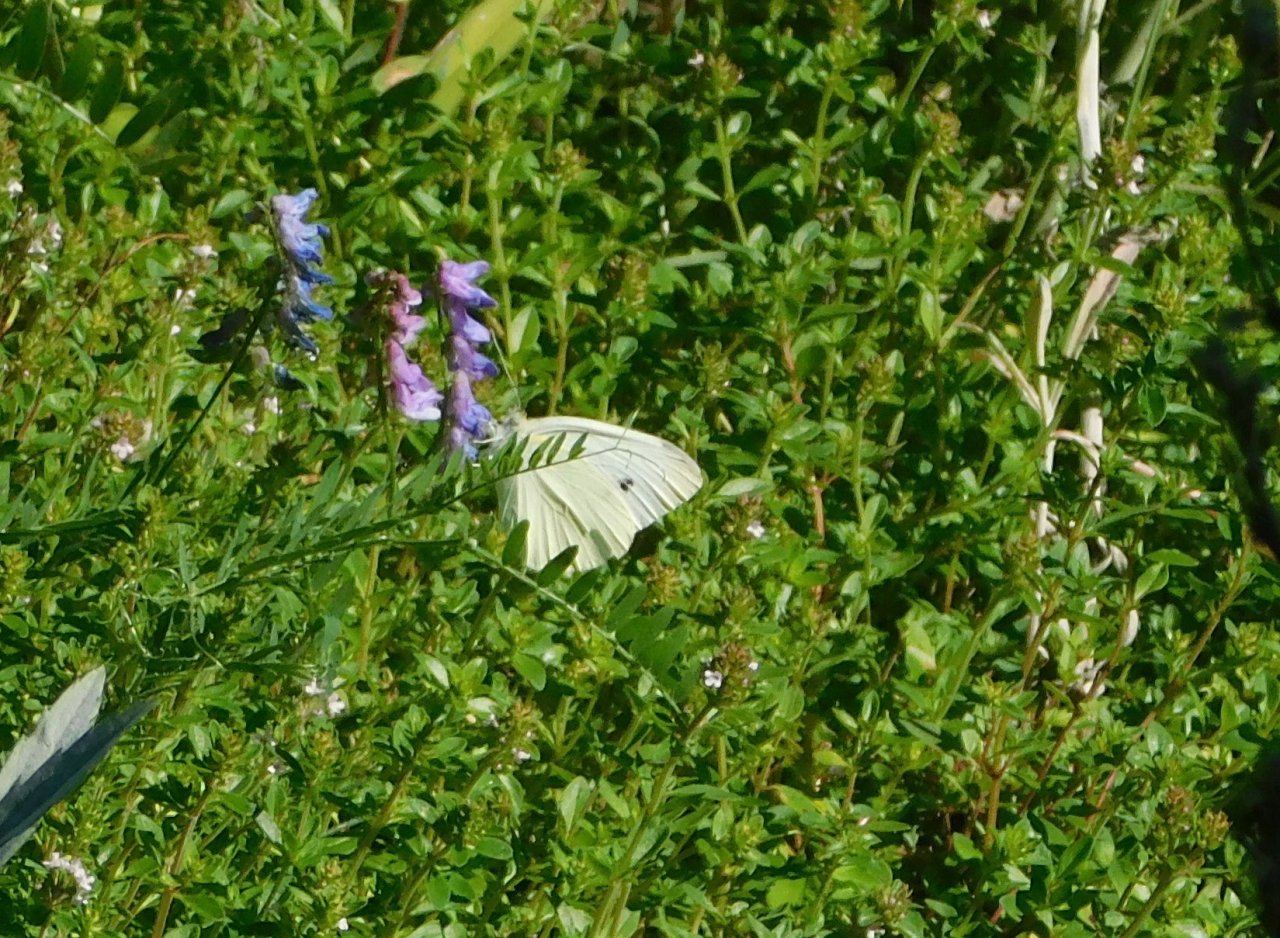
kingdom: Animalia
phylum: Arthropoda
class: Insecta
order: Lepidoptera
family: Pieridae
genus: Pieris
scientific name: Pieris rapae
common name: Cabbage White
